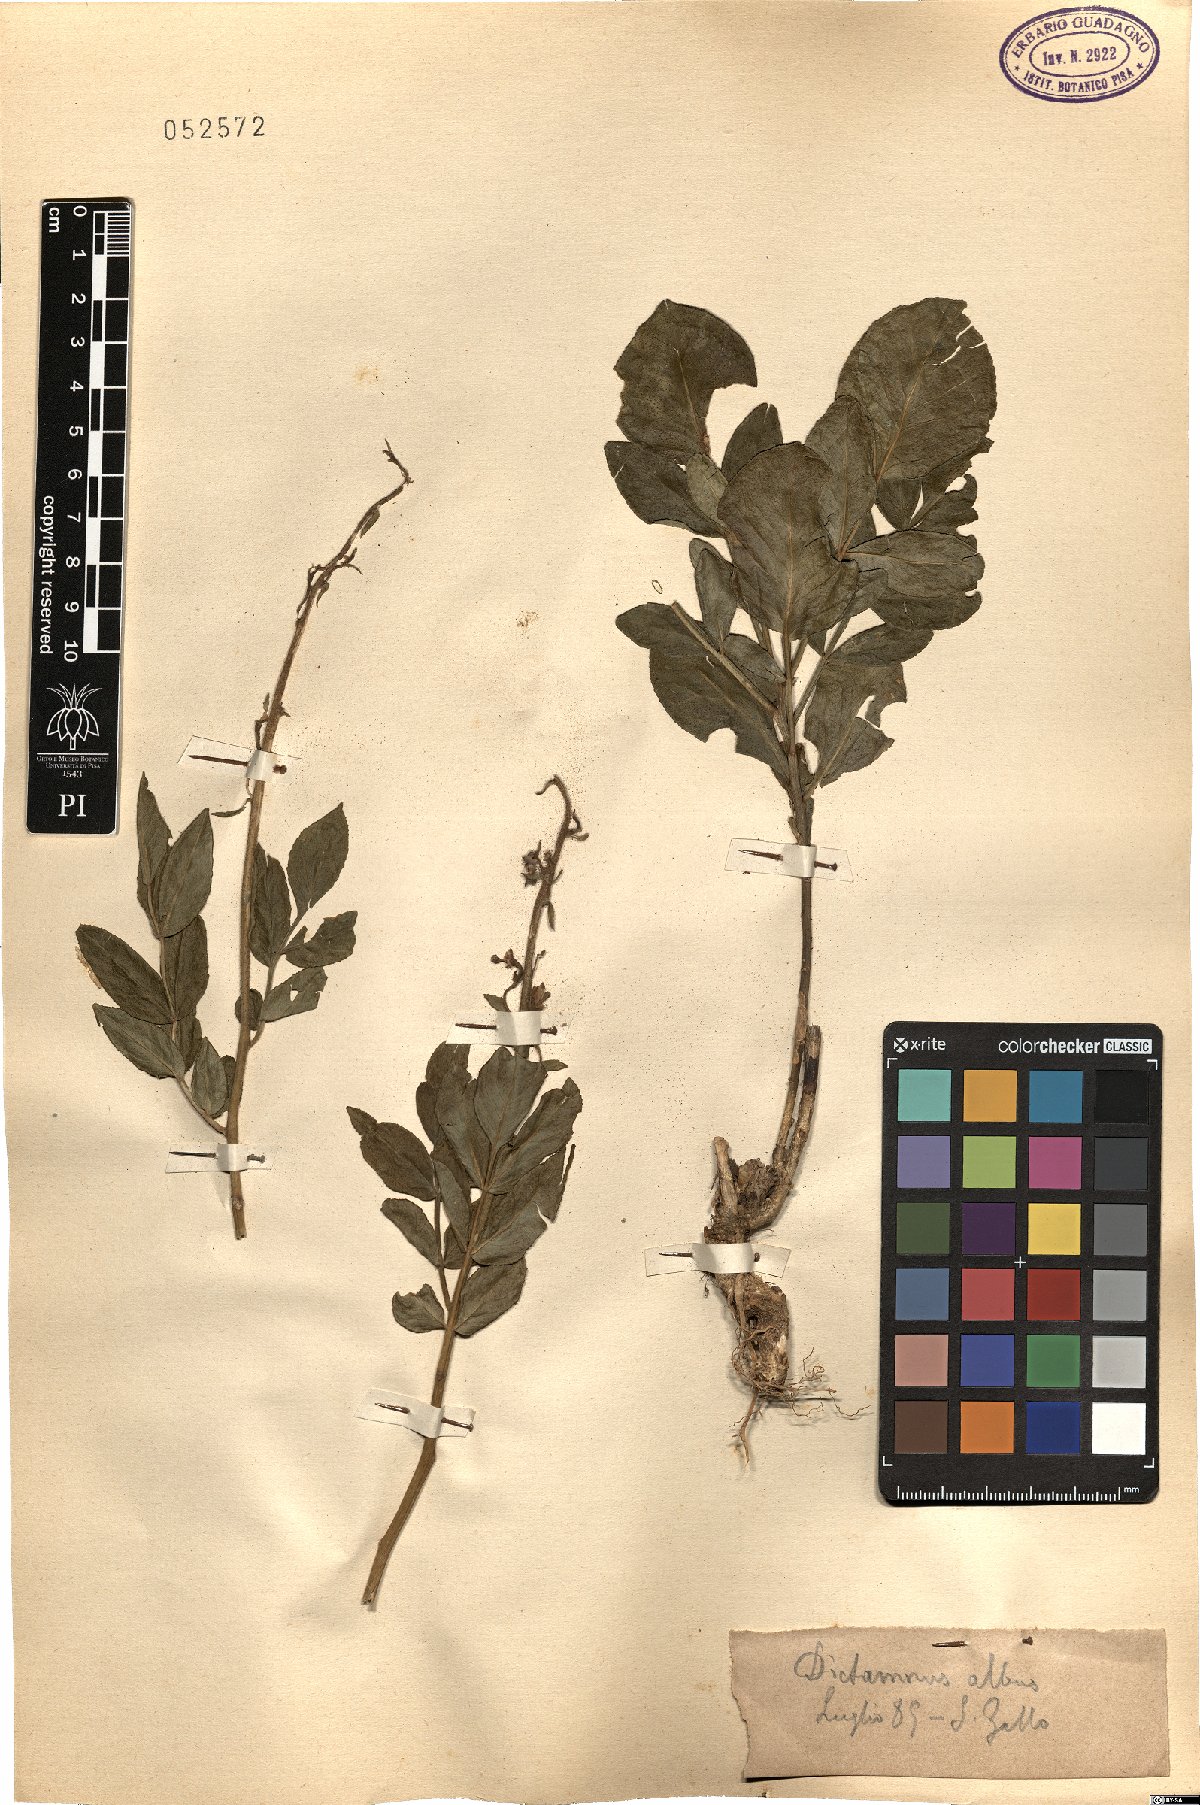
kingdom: Plantae
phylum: Tracheophyta
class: Magnoliopsida
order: Sapindales
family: Rutaceae
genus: Dictamnus
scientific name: Dictamnus albus
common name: Gasplant
